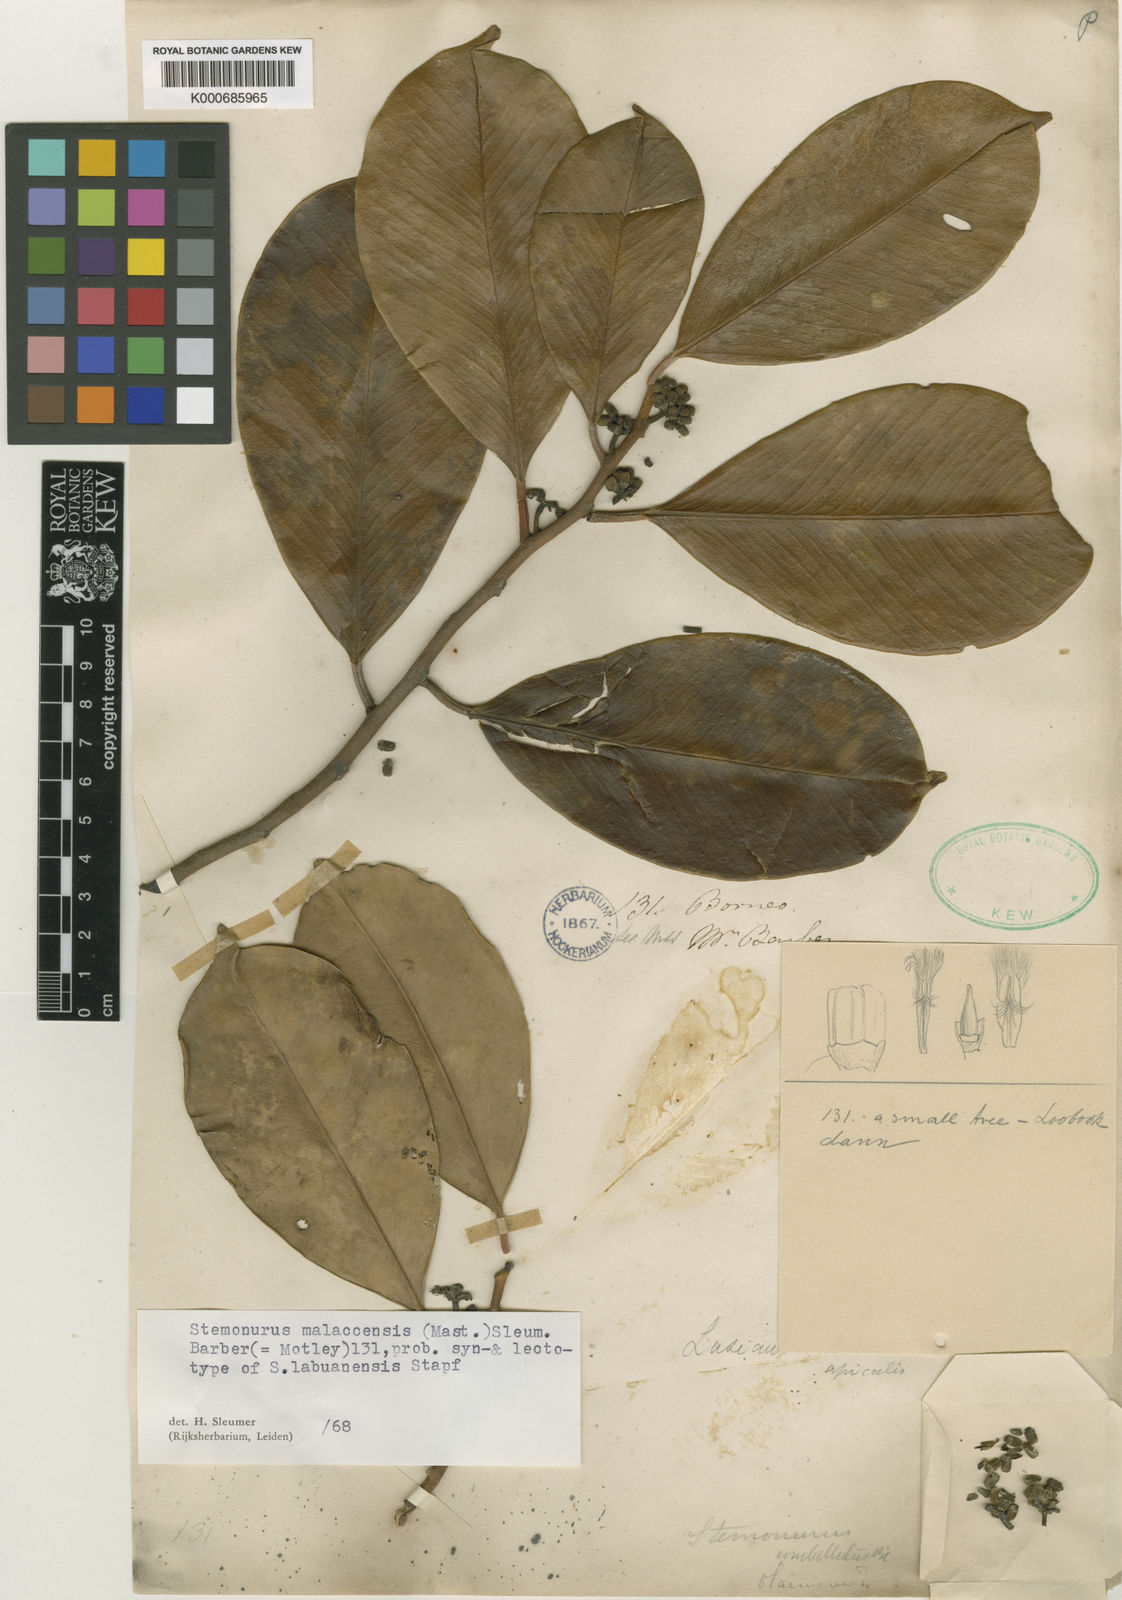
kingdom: Plantae
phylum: Tracheophyta
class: Magnoliopsida
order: Cardiopteridales
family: Stemonuraceae
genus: Stemonurus
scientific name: Stemonurus malaccensis
